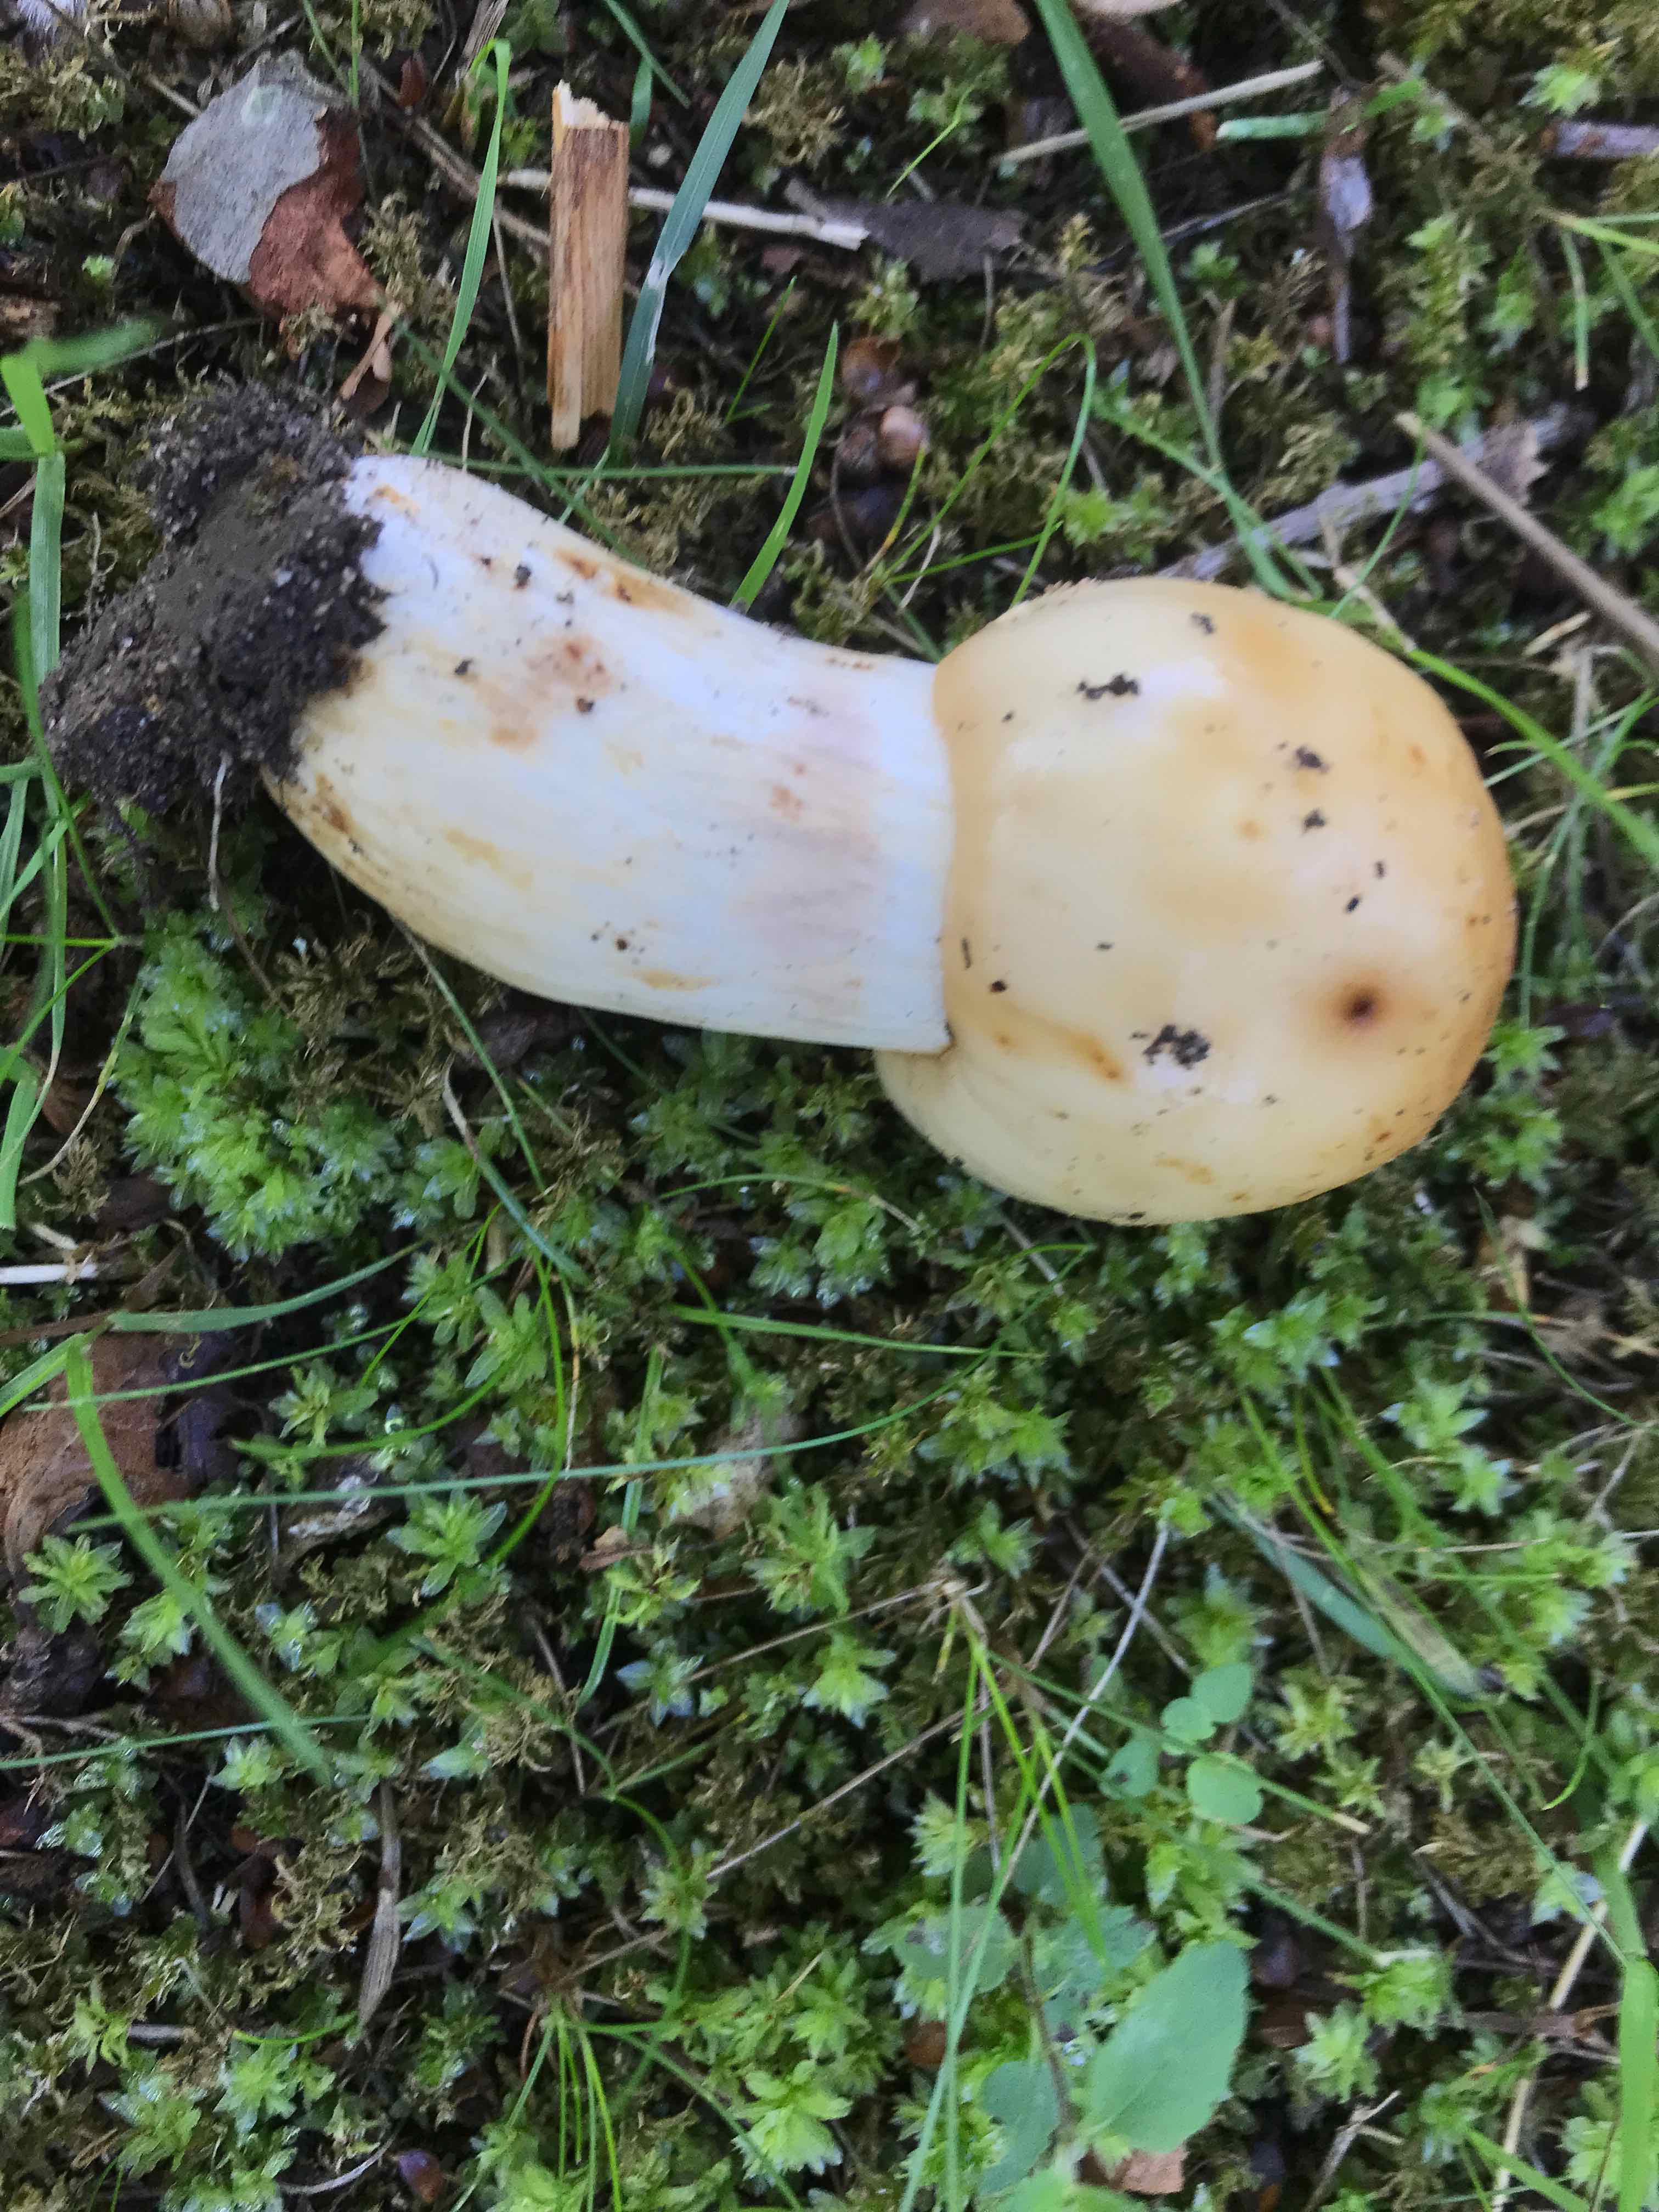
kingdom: Fungi
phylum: Basidiomycota
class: Agaricomycetes
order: Russulales
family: Russulaceae
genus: Russula
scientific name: Russula foetens
